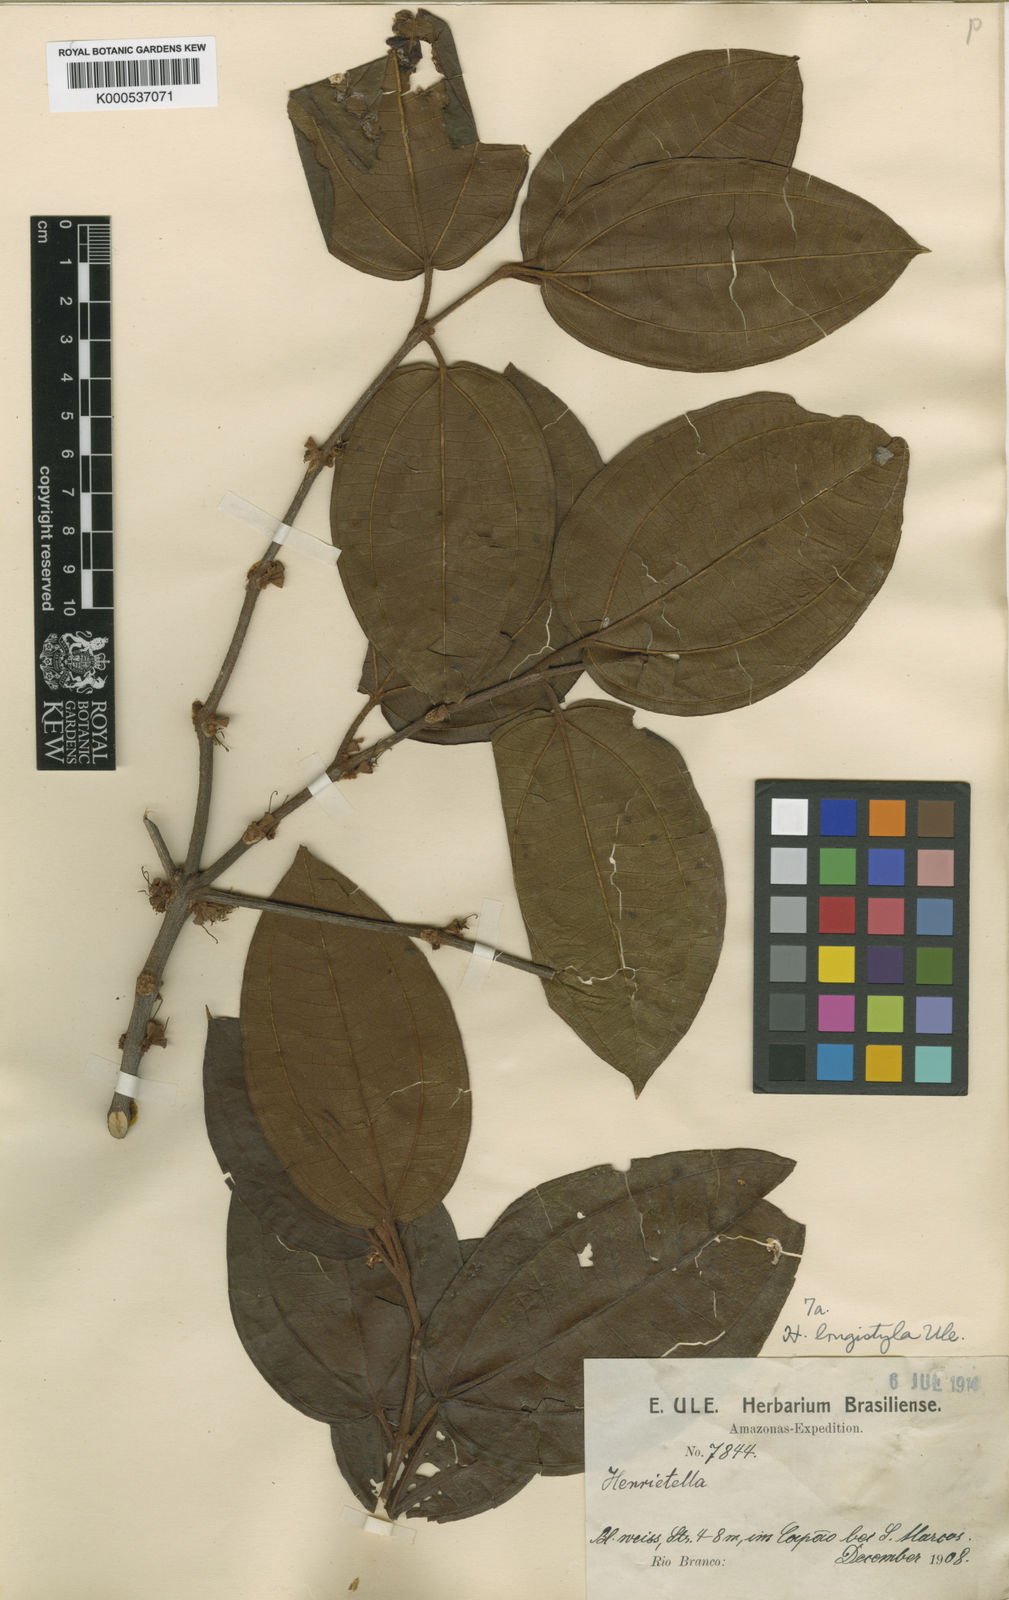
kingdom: Plantae
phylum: Tracheophyta
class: Magnoliopsida
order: Myrtales
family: Melastomataceae
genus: Henriettea
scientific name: Henriettea ovata
